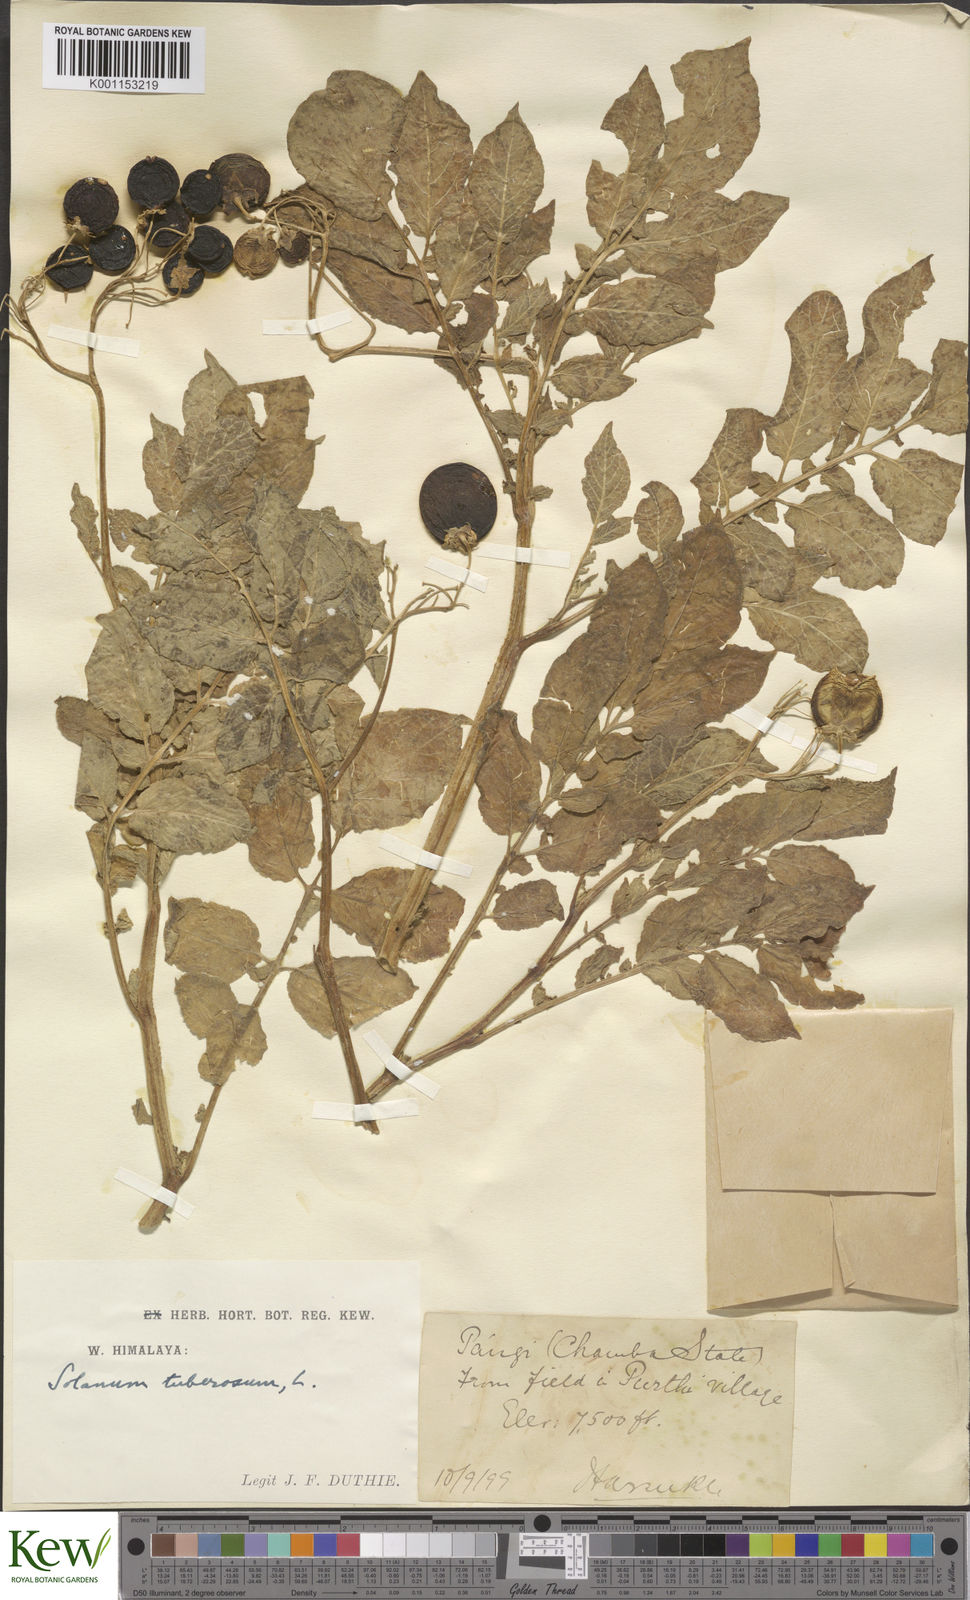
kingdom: Plantae
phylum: Tracheophyta
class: Magnoliopsida
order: Solanales
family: Solanaceae
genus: Solanum
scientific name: Solanum tuberosum
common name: Potato
